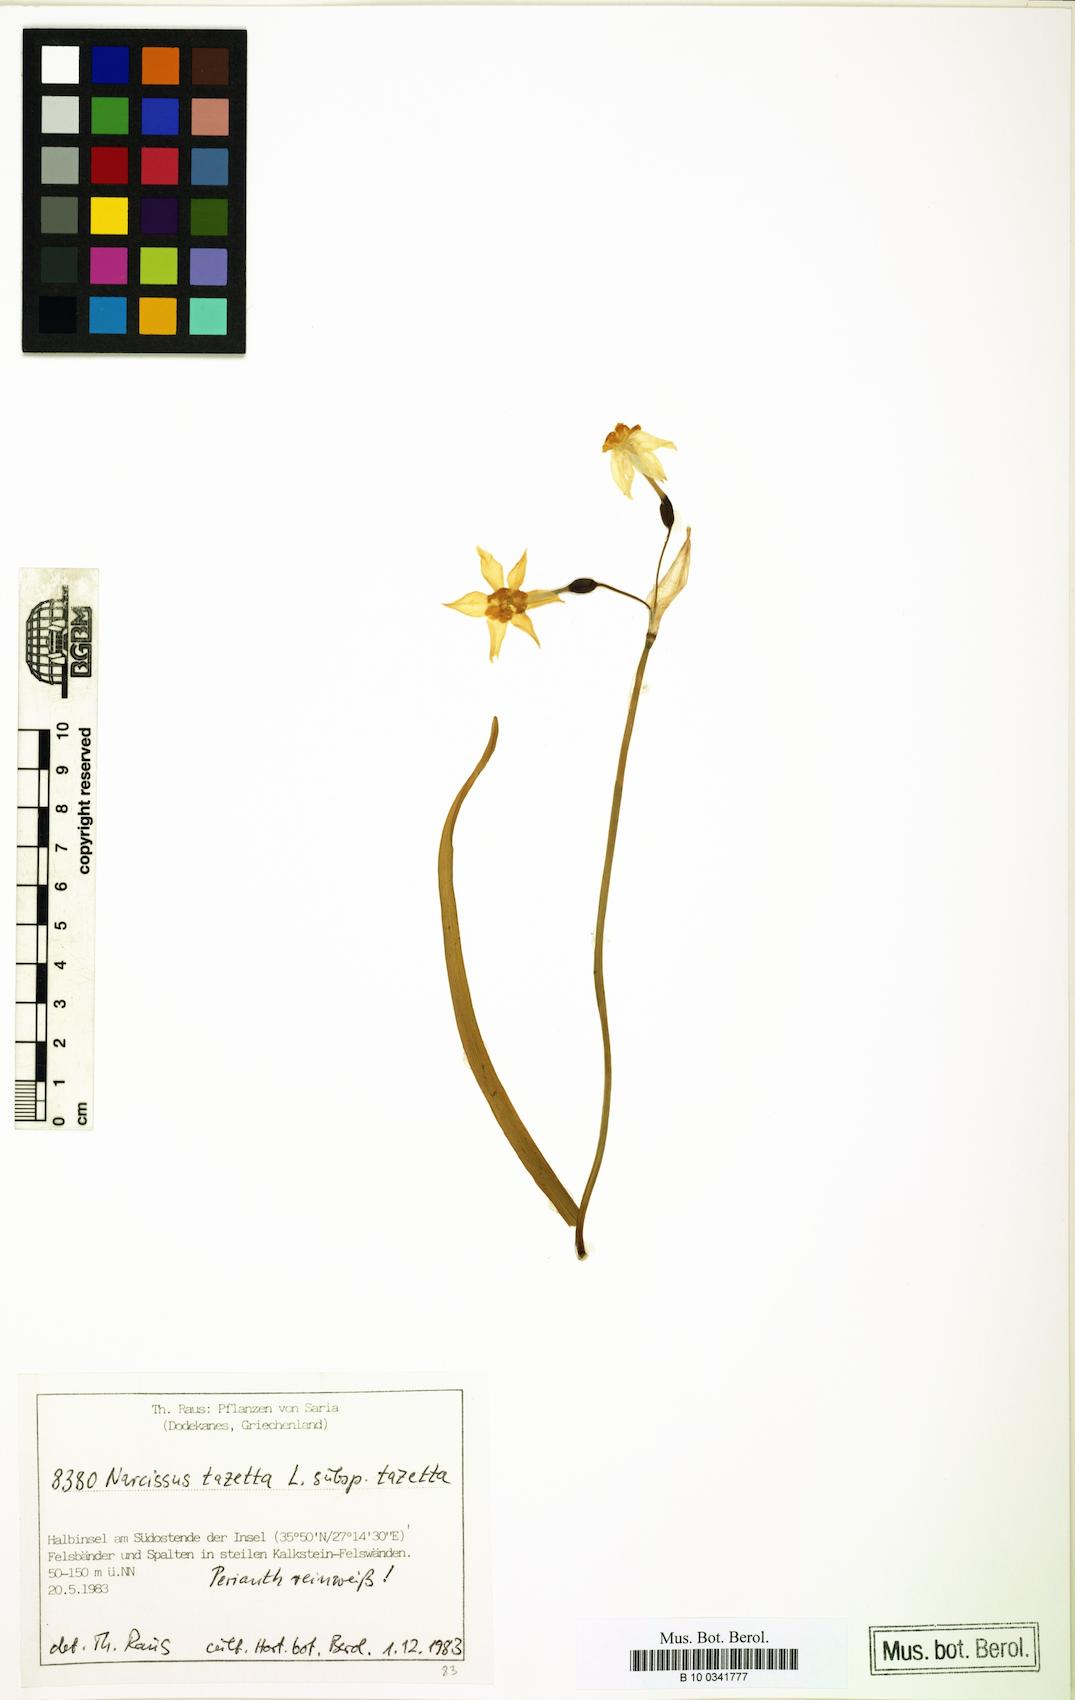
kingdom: Plantae
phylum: Tracheophyta
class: Liliopsida
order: Asparagales
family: Amaryllidaceae
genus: Narcissus
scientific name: Narcissus tazetta
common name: Bunch-flowered daffodil
